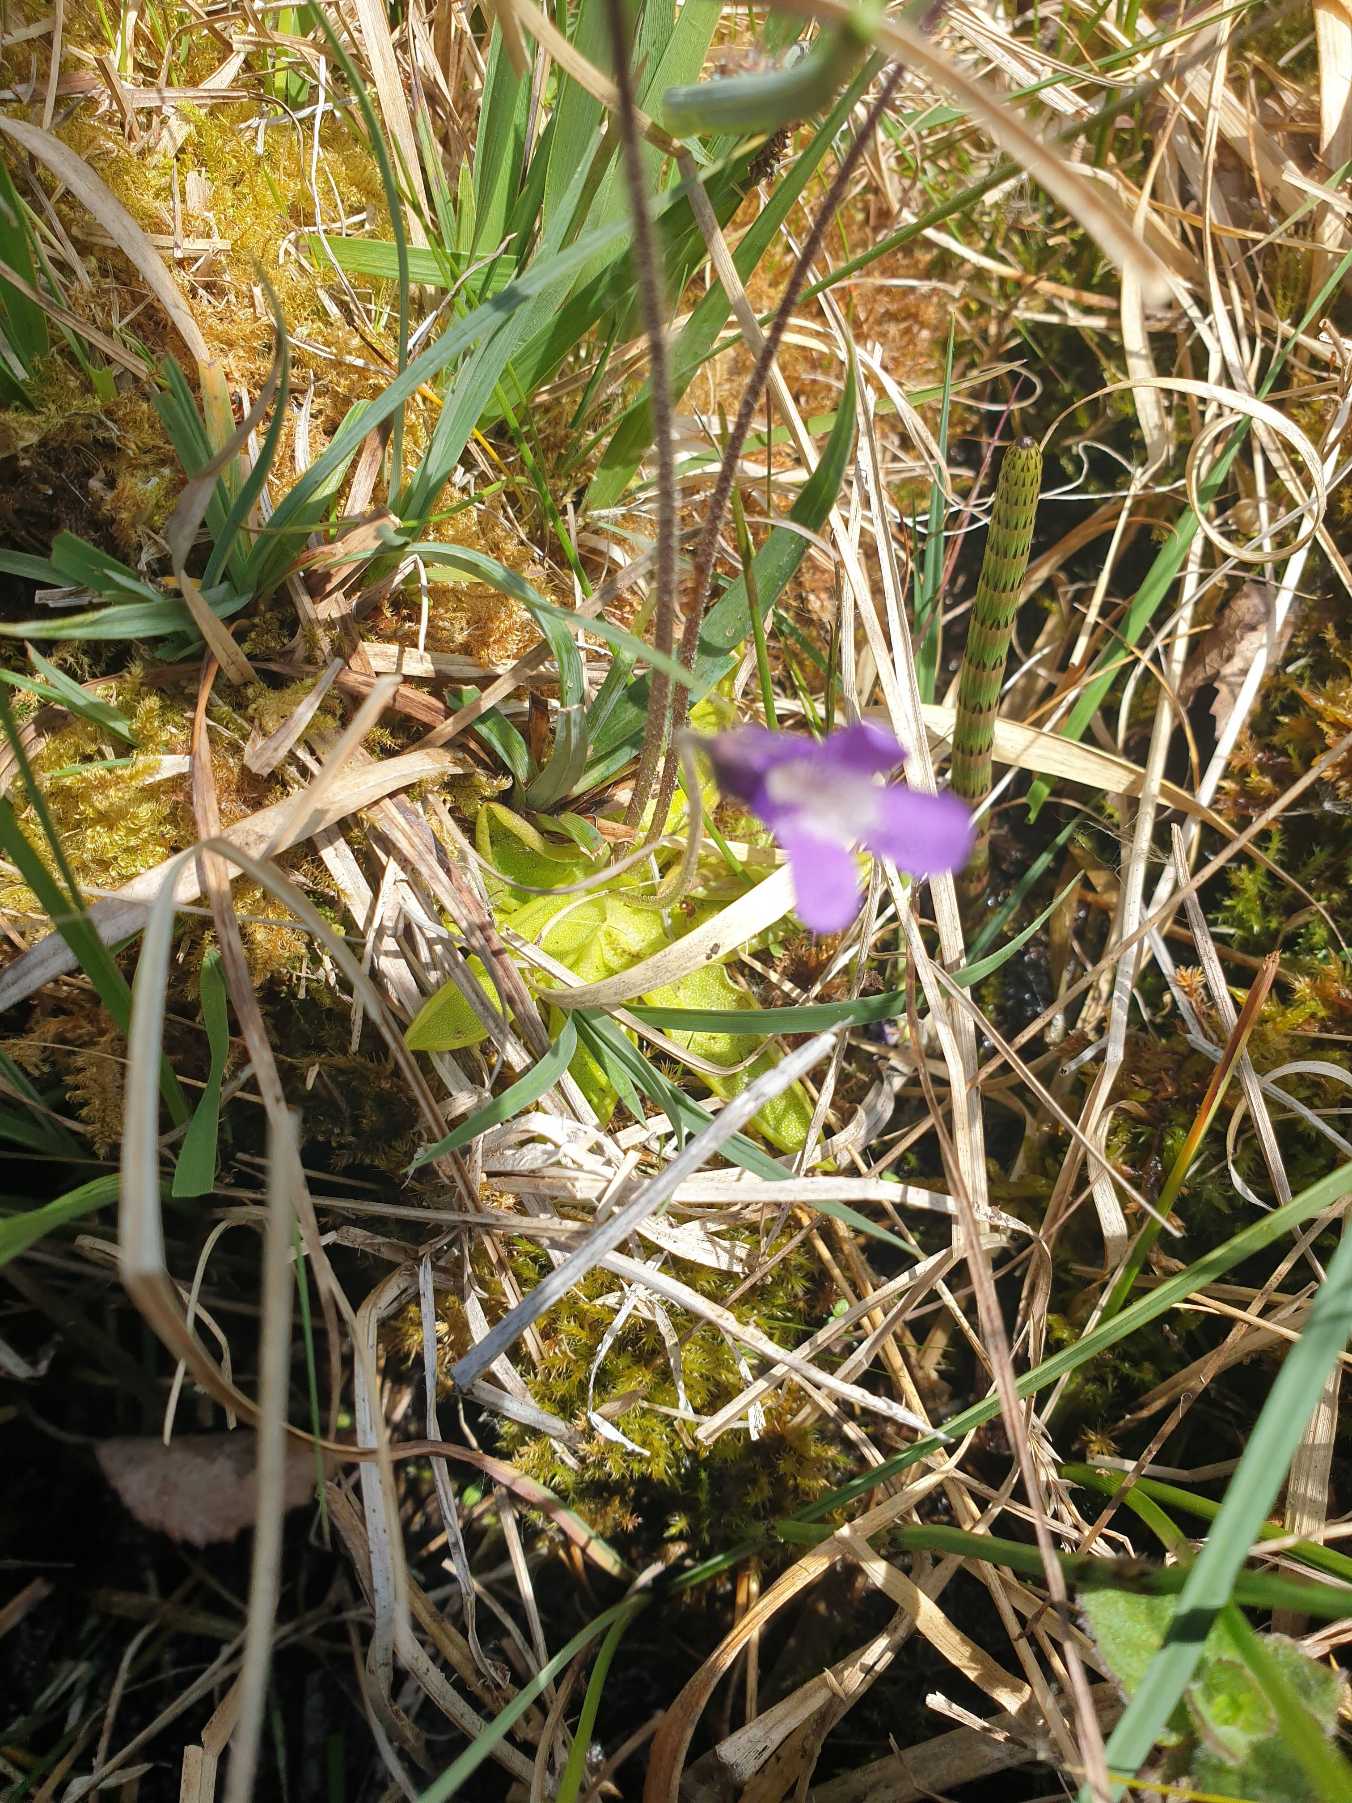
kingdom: Plantae
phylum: Tracheophyta
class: Magnoliopsida
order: Lamiales
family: Lentibulariaceae
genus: Pinguicula
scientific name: Pinguicula vulgaris
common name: Vibefedt
